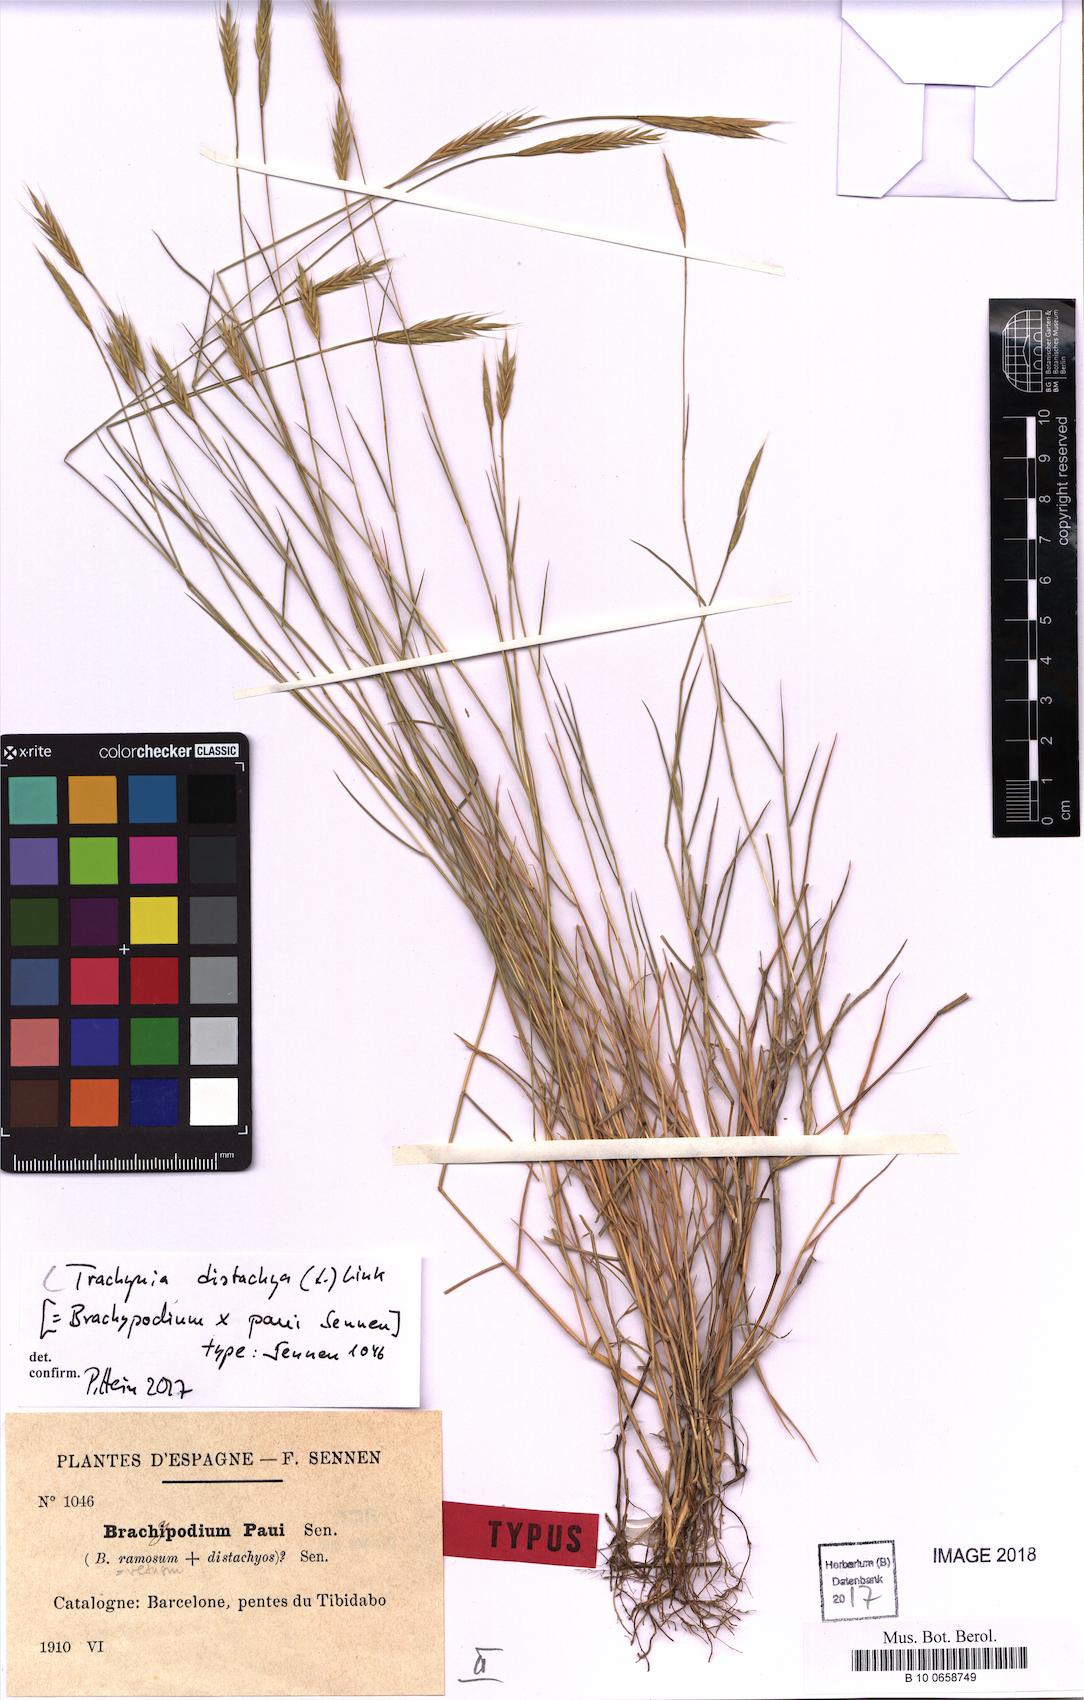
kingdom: Plantae
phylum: Tracheophyta
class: Liliopsida
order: Poales
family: Poaceae
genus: Brachypodium
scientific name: Brachypodium distachyon
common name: Stiff brome
